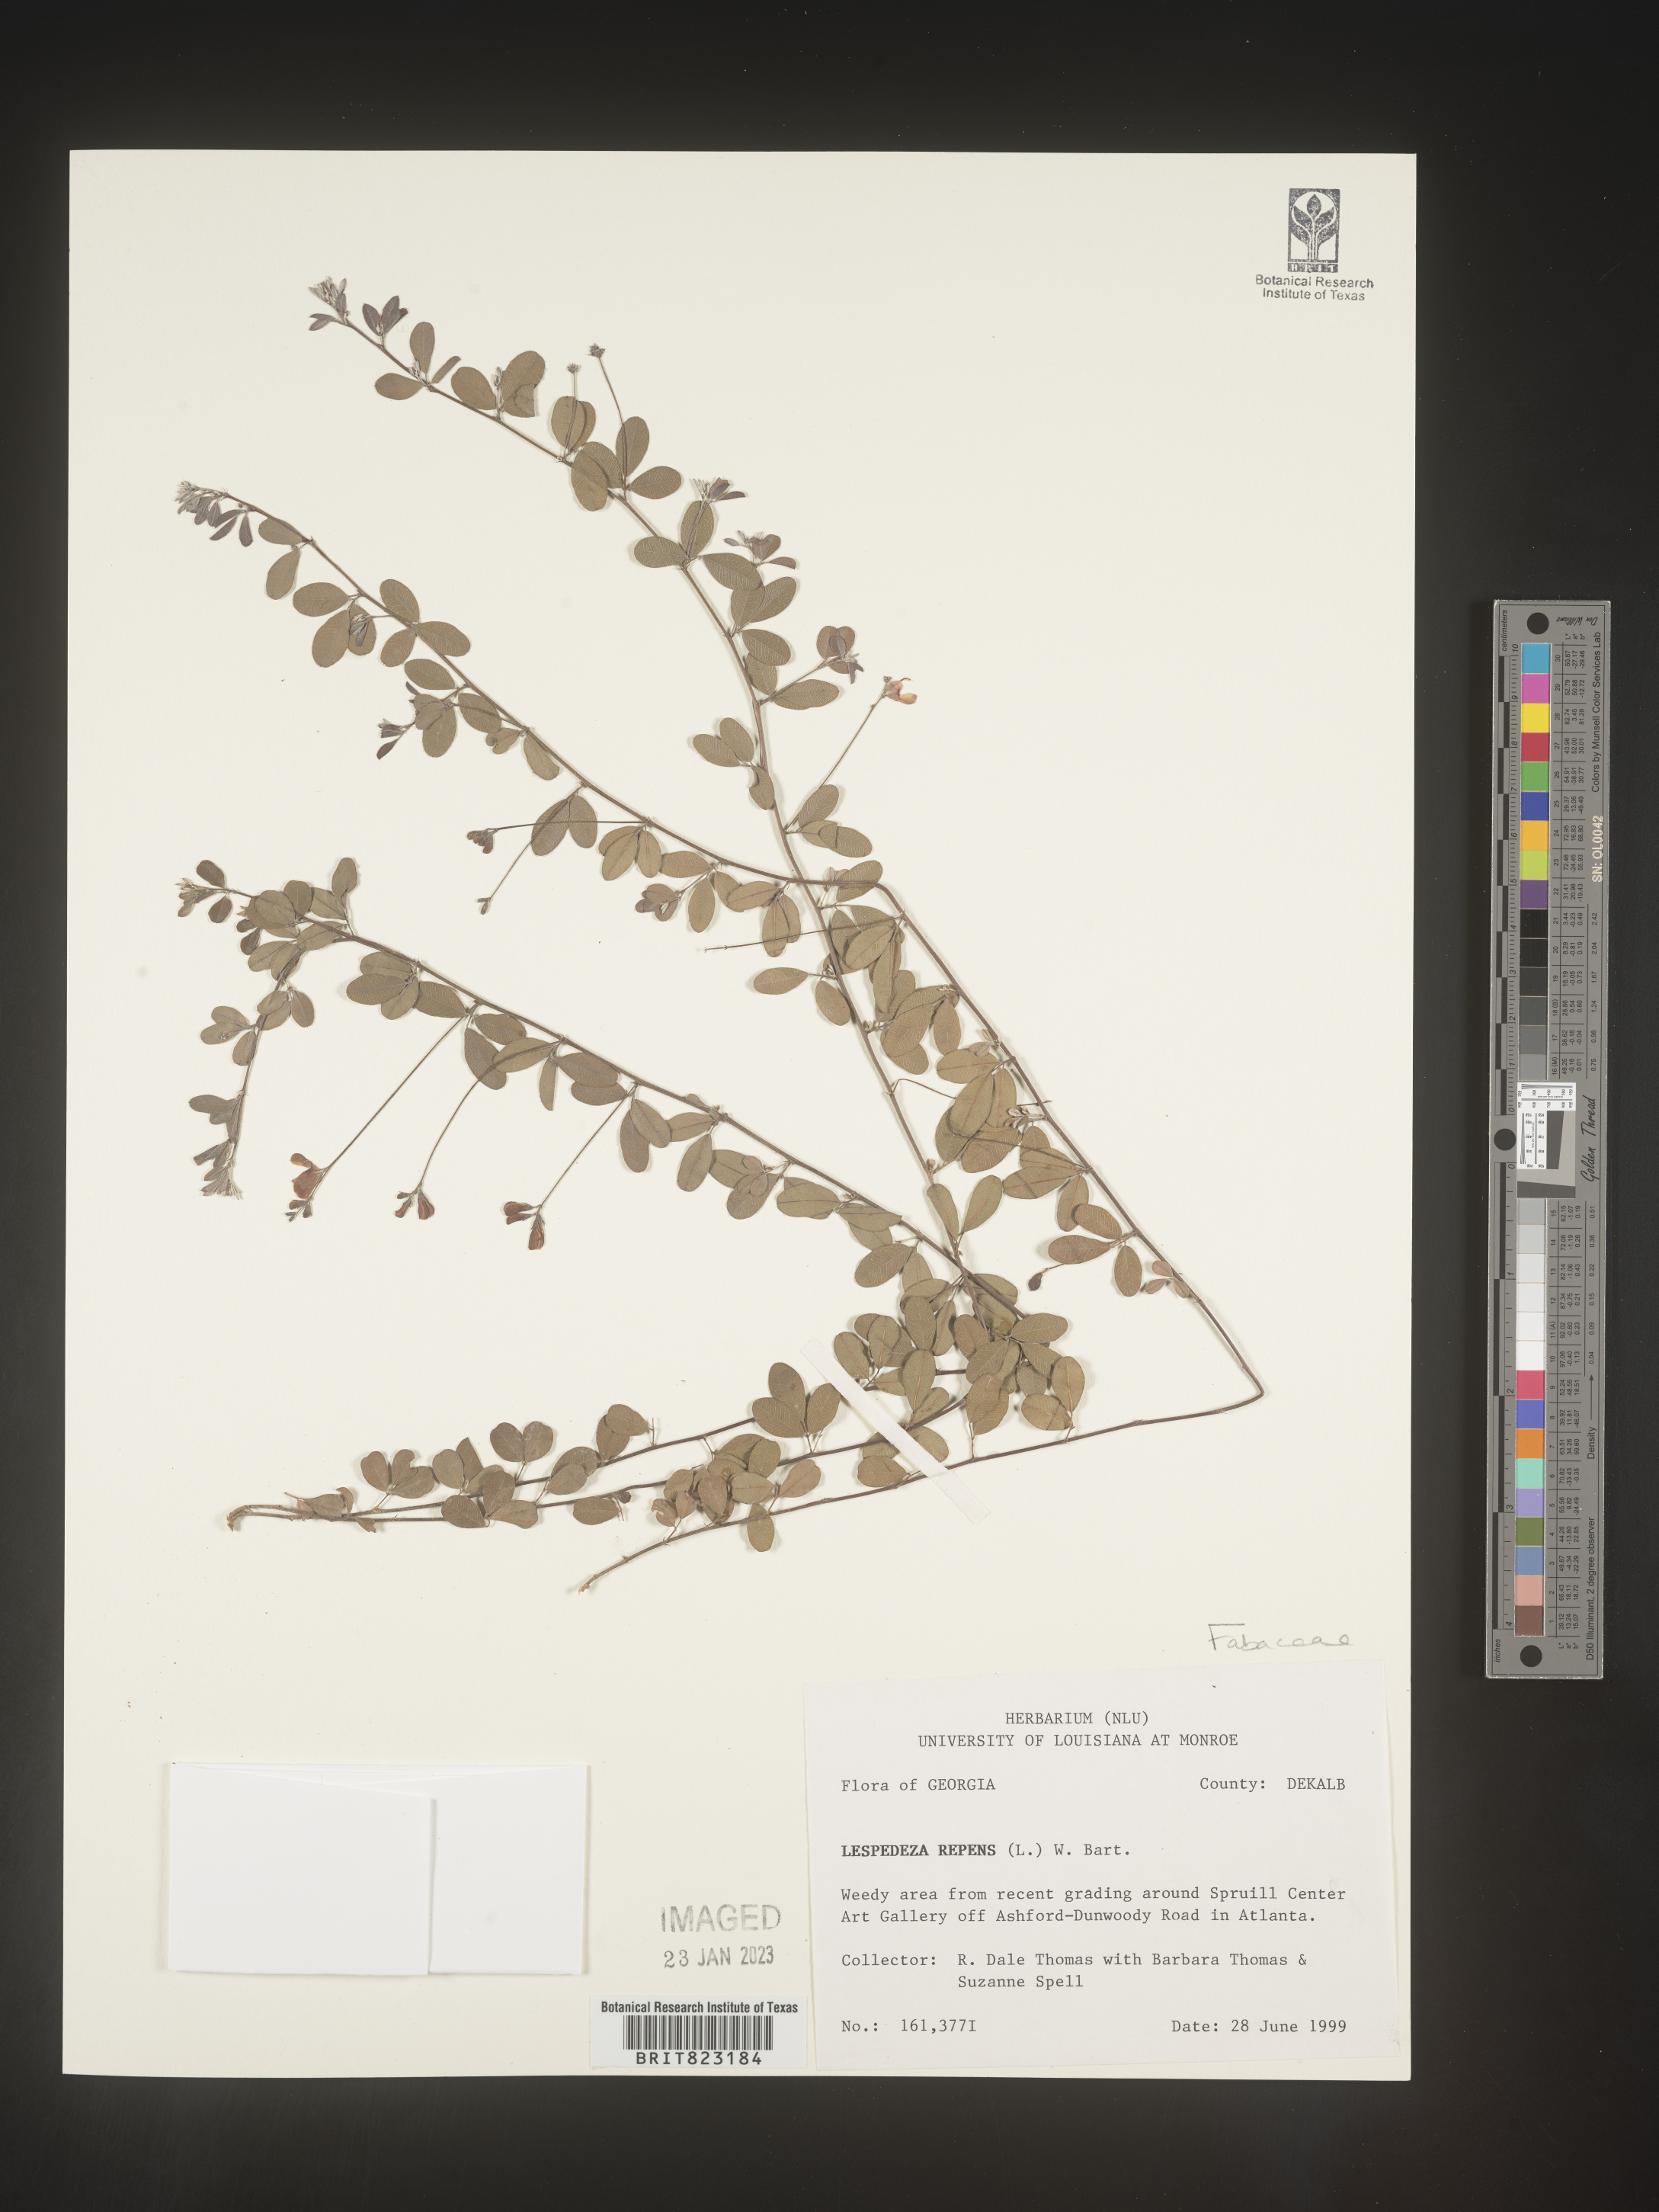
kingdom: Plantae
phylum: Tracheophyta
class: Magnoliopsida
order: Fabales
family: Fabaceae
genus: Lespedeza
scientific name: Lespedeza repens
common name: Creeping bush-clover
